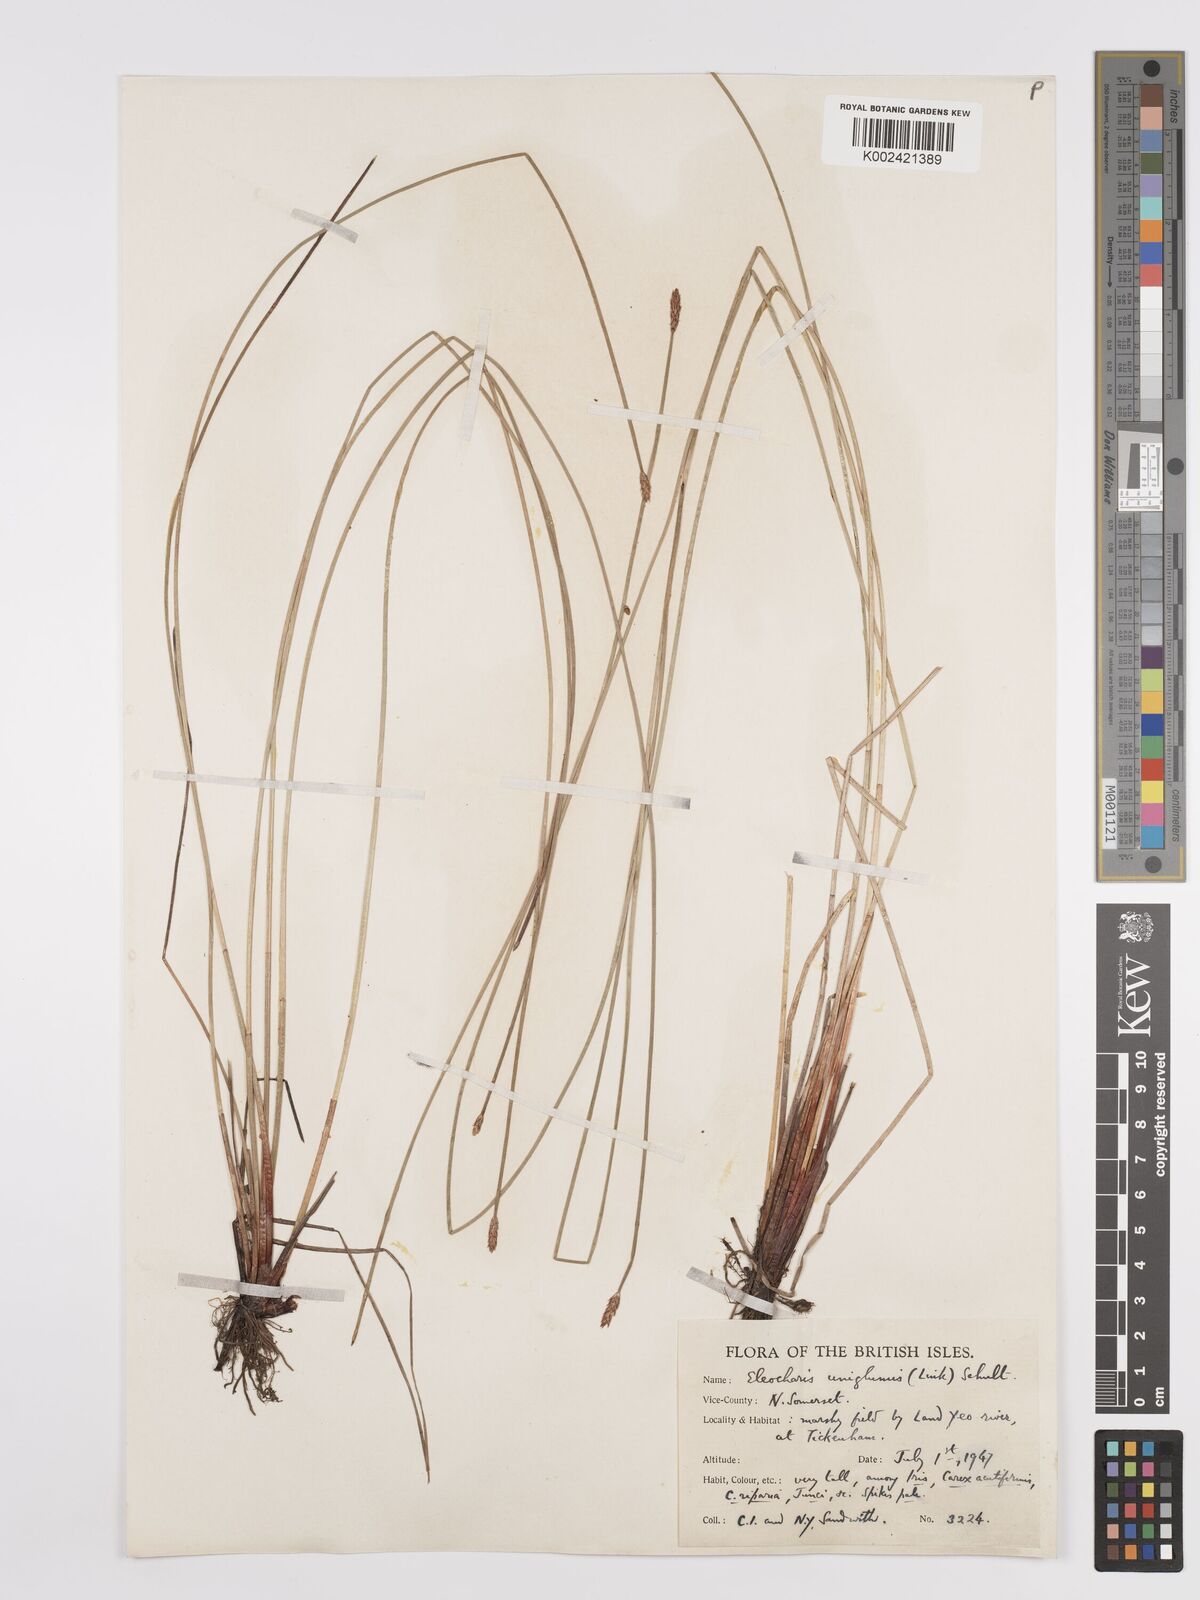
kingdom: Plantae
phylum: Tracheophyta
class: Liliopsida
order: Poales
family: Cyperaceae
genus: Eleocharis
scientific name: Eleocharis uniglumis
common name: Slender spike-rush
